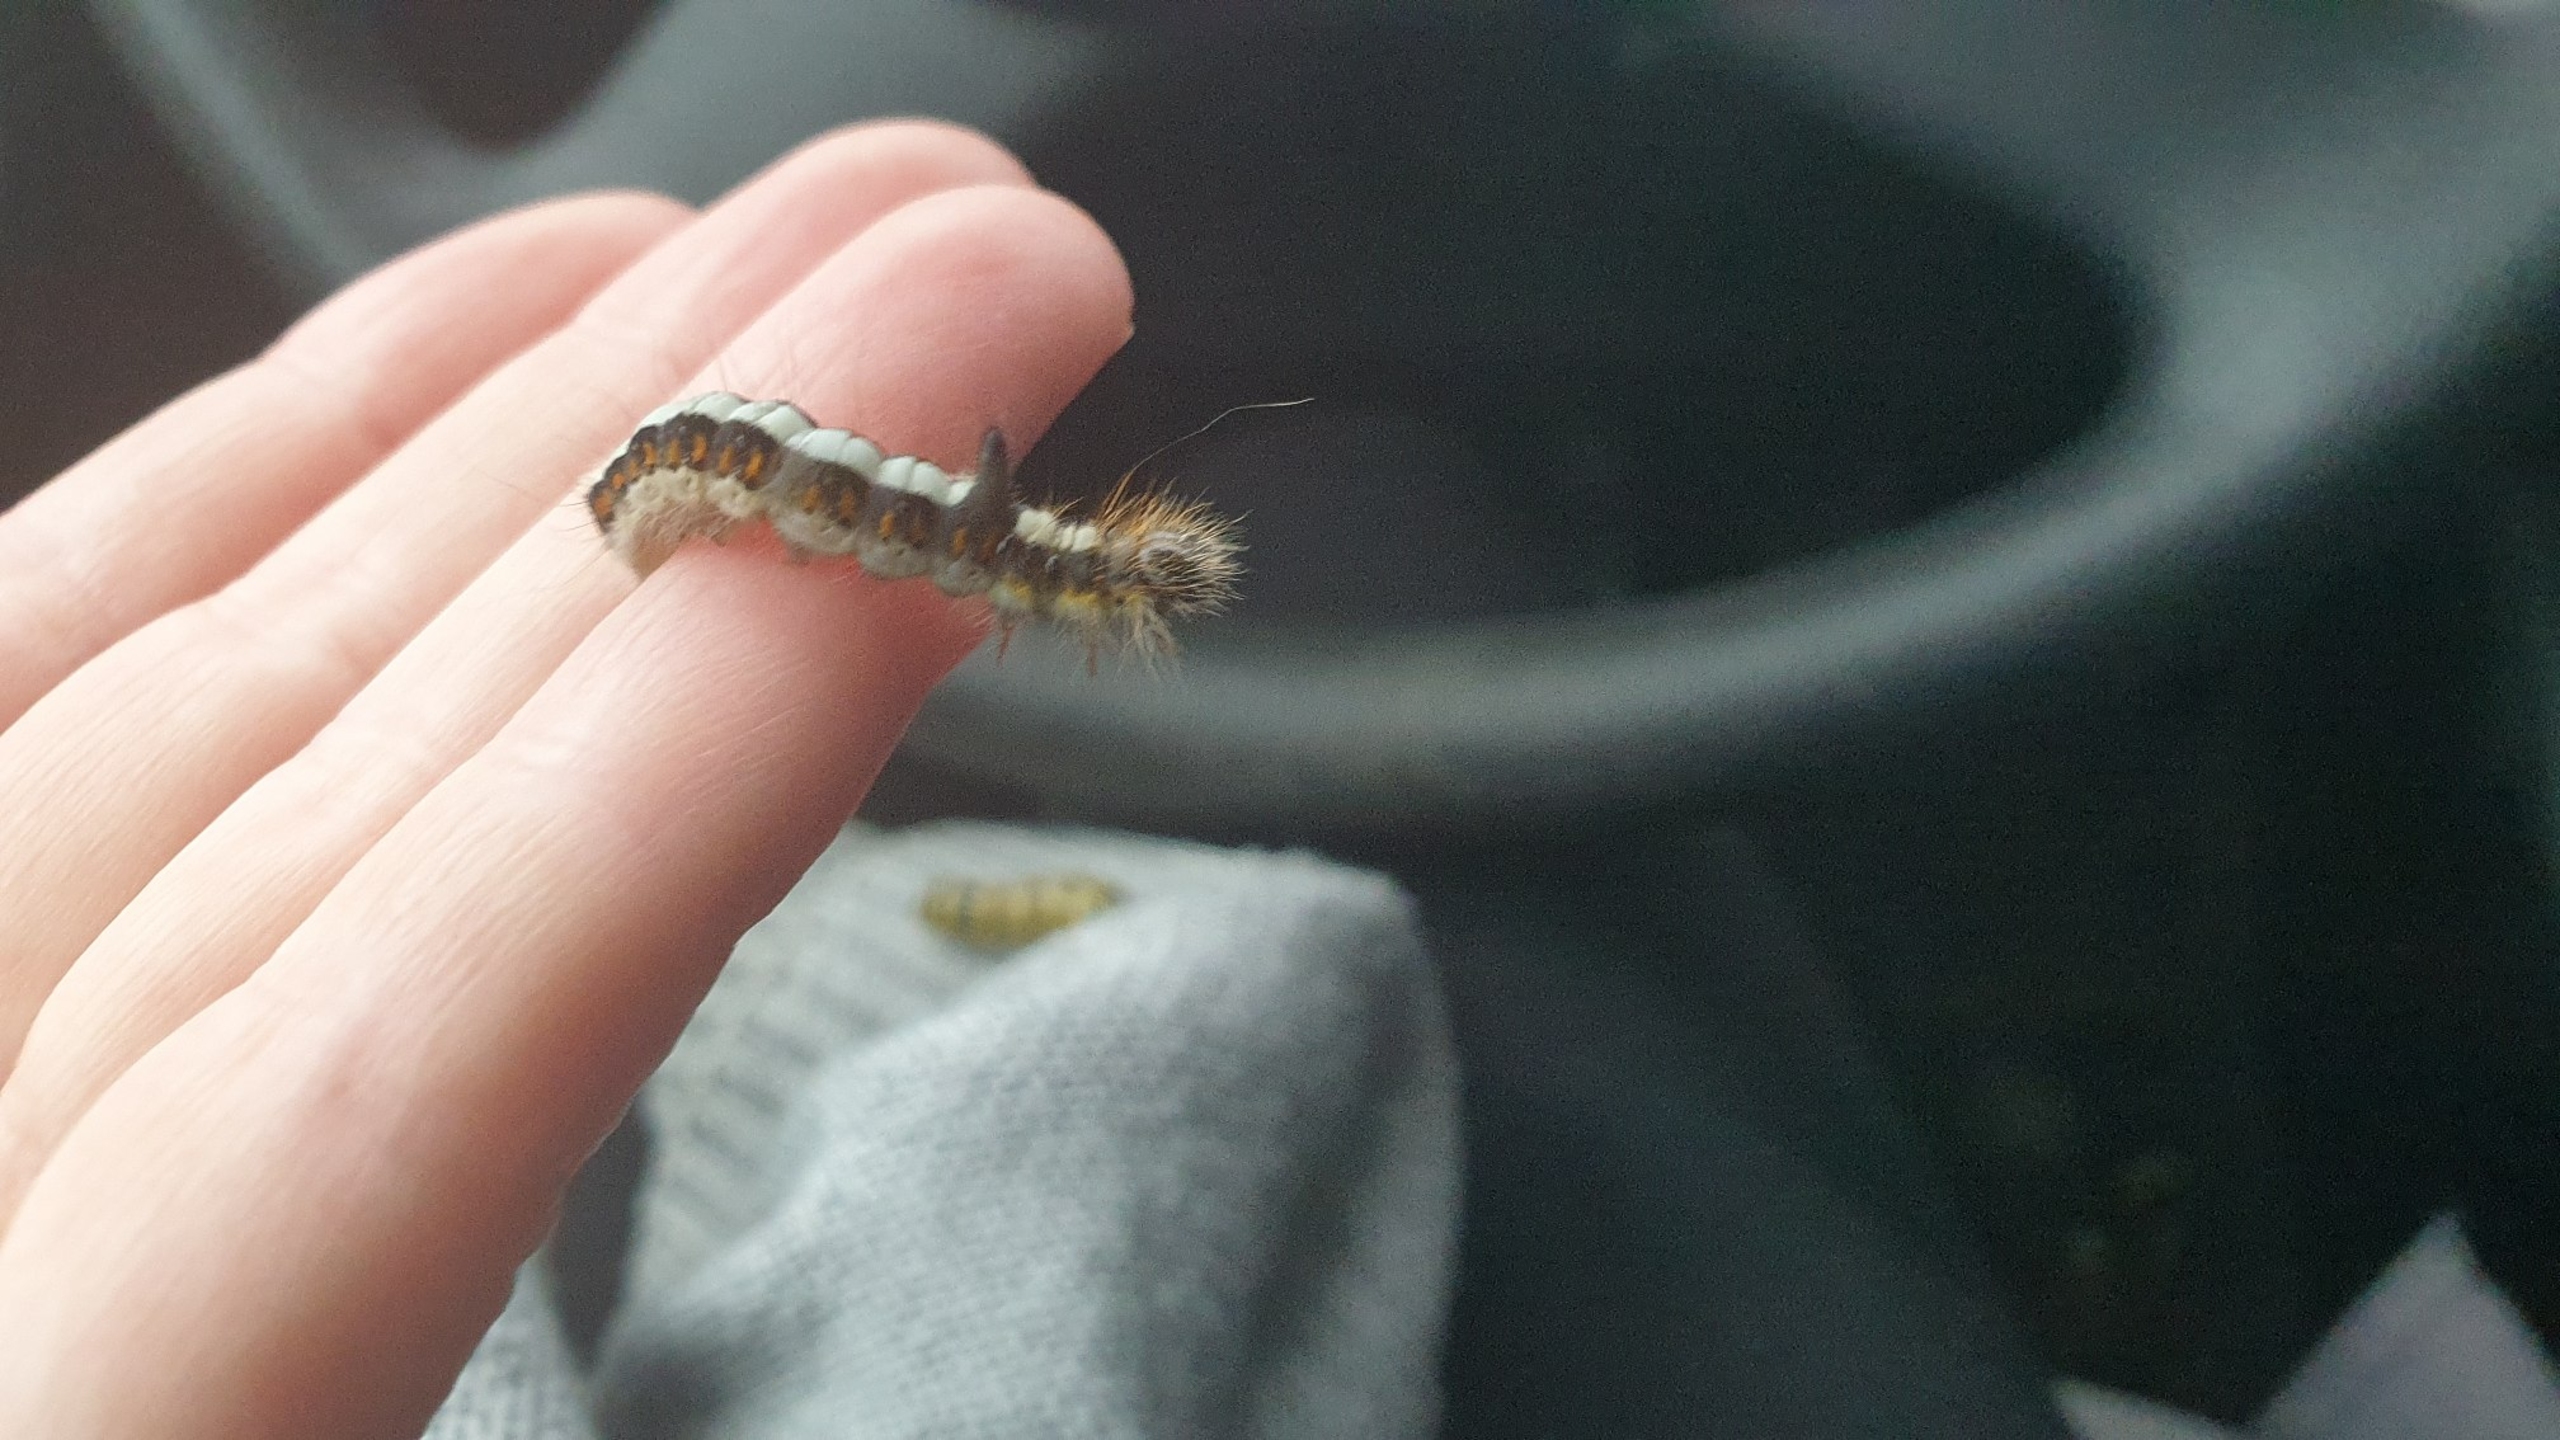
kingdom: Animalia
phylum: Arthropoda
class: Insecta
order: Lepidoptera
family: Noctuidae
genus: Acronicta
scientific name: Acronicta psi
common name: Psi-ugle
